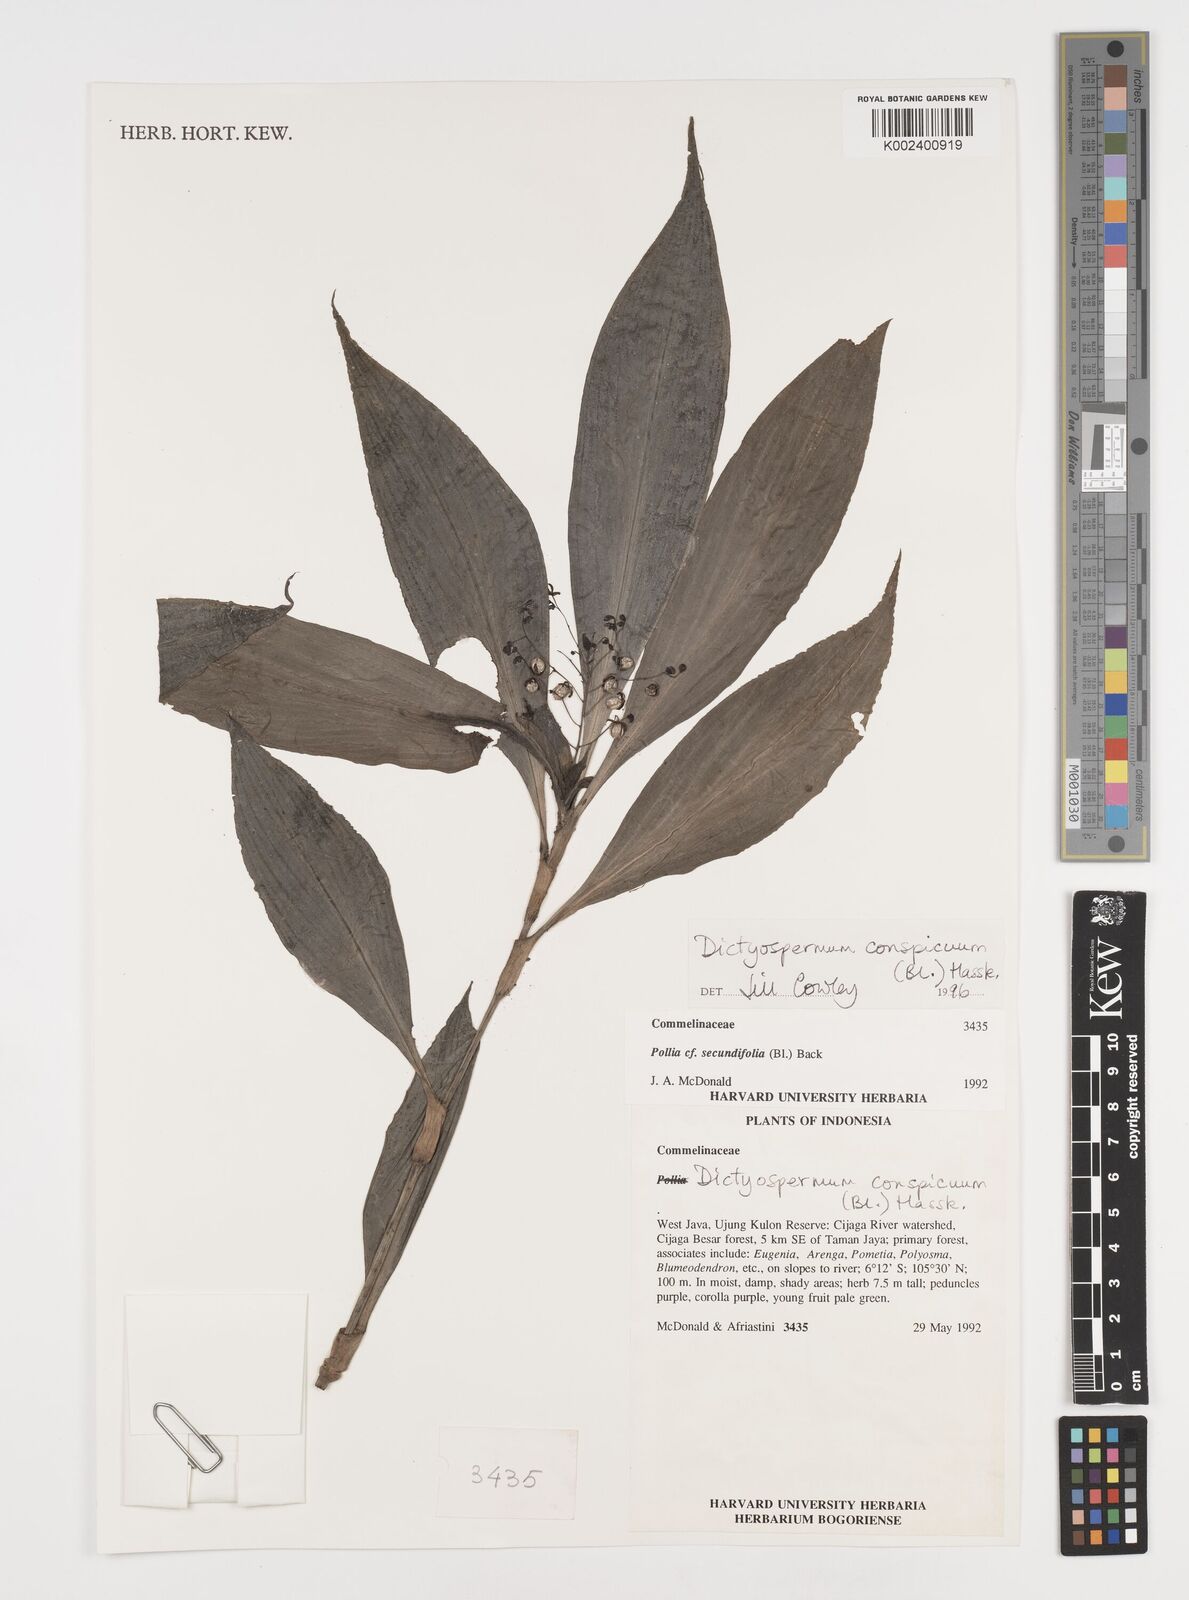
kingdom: Plantae
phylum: Tracheophyta
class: Liliopsida
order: Commelinales
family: Commelinaceae
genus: Dictyospermum
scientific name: Dictyospermum conspicuum
